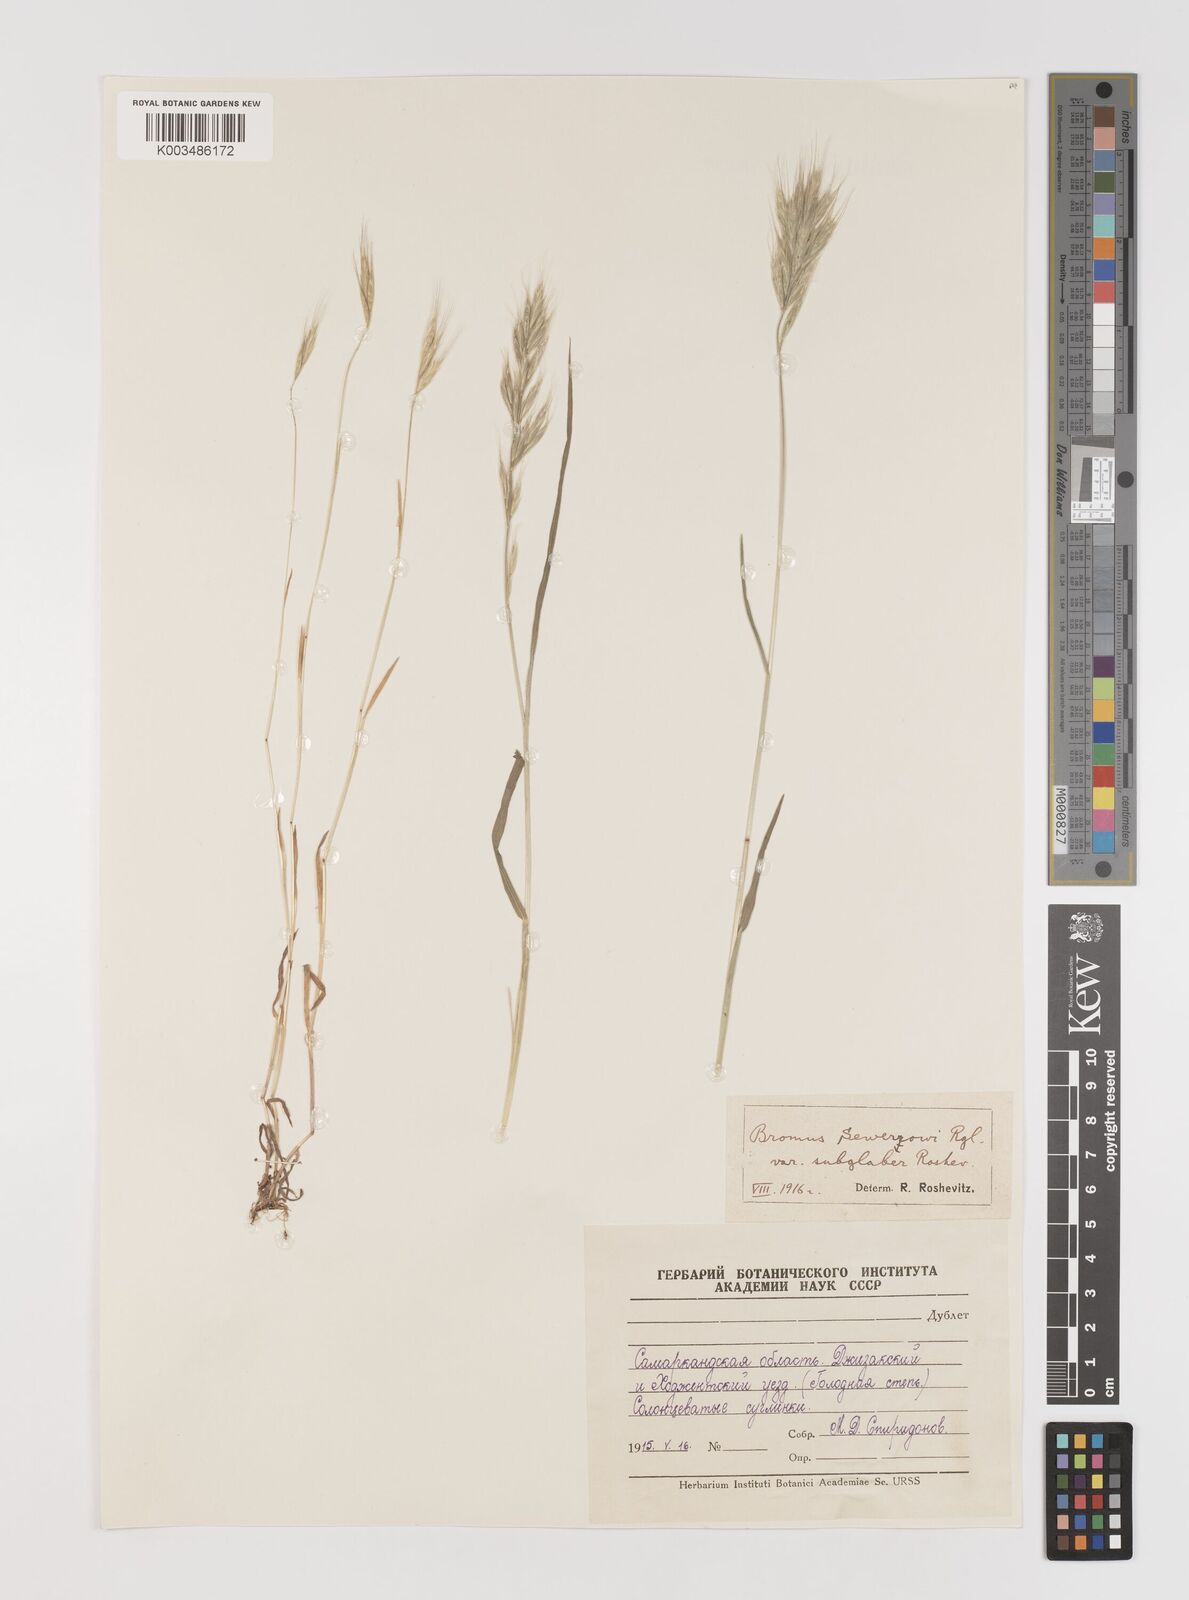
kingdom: Plantae
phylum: Tracheophyta
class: Liliopsida
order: Poales
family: Poaceae
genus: Bromus
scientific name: Bromus sewerzowii
